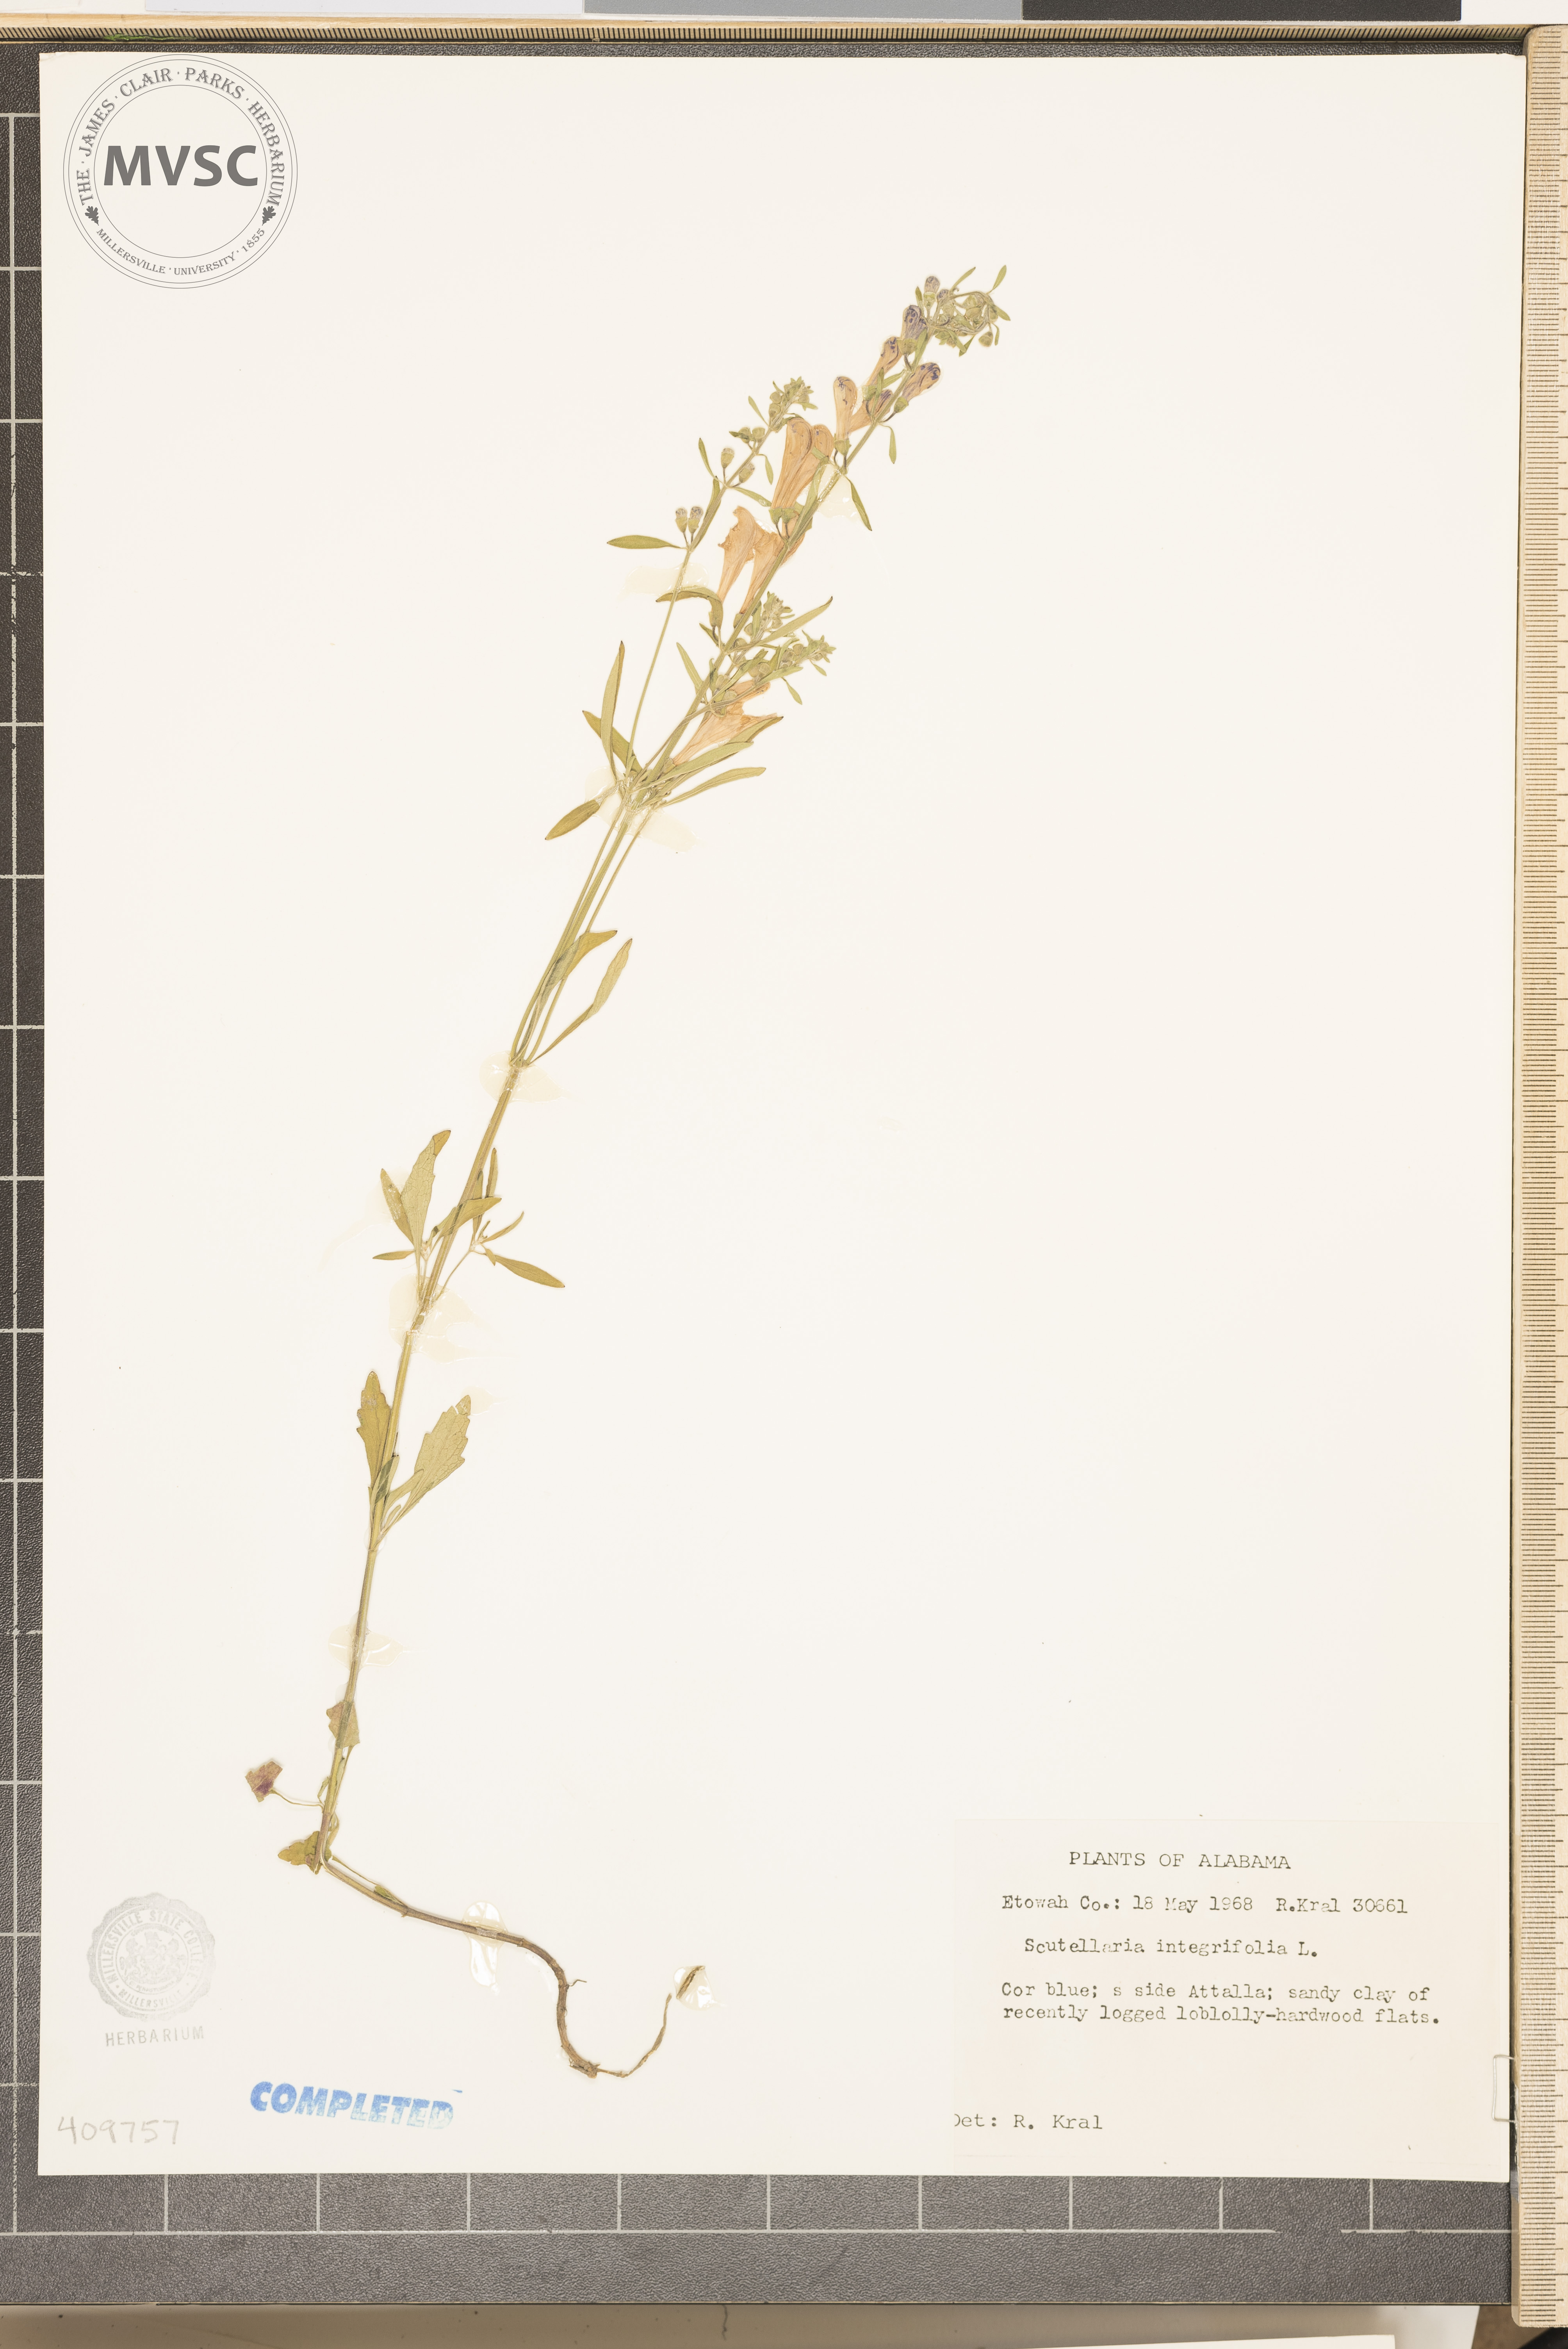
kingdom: Plantae
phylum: Tracheophyta
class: Magnoliopsida
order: Lamiales
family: Lamiaceae
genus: Scutellaria
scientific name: Scutellaria integrifolia
